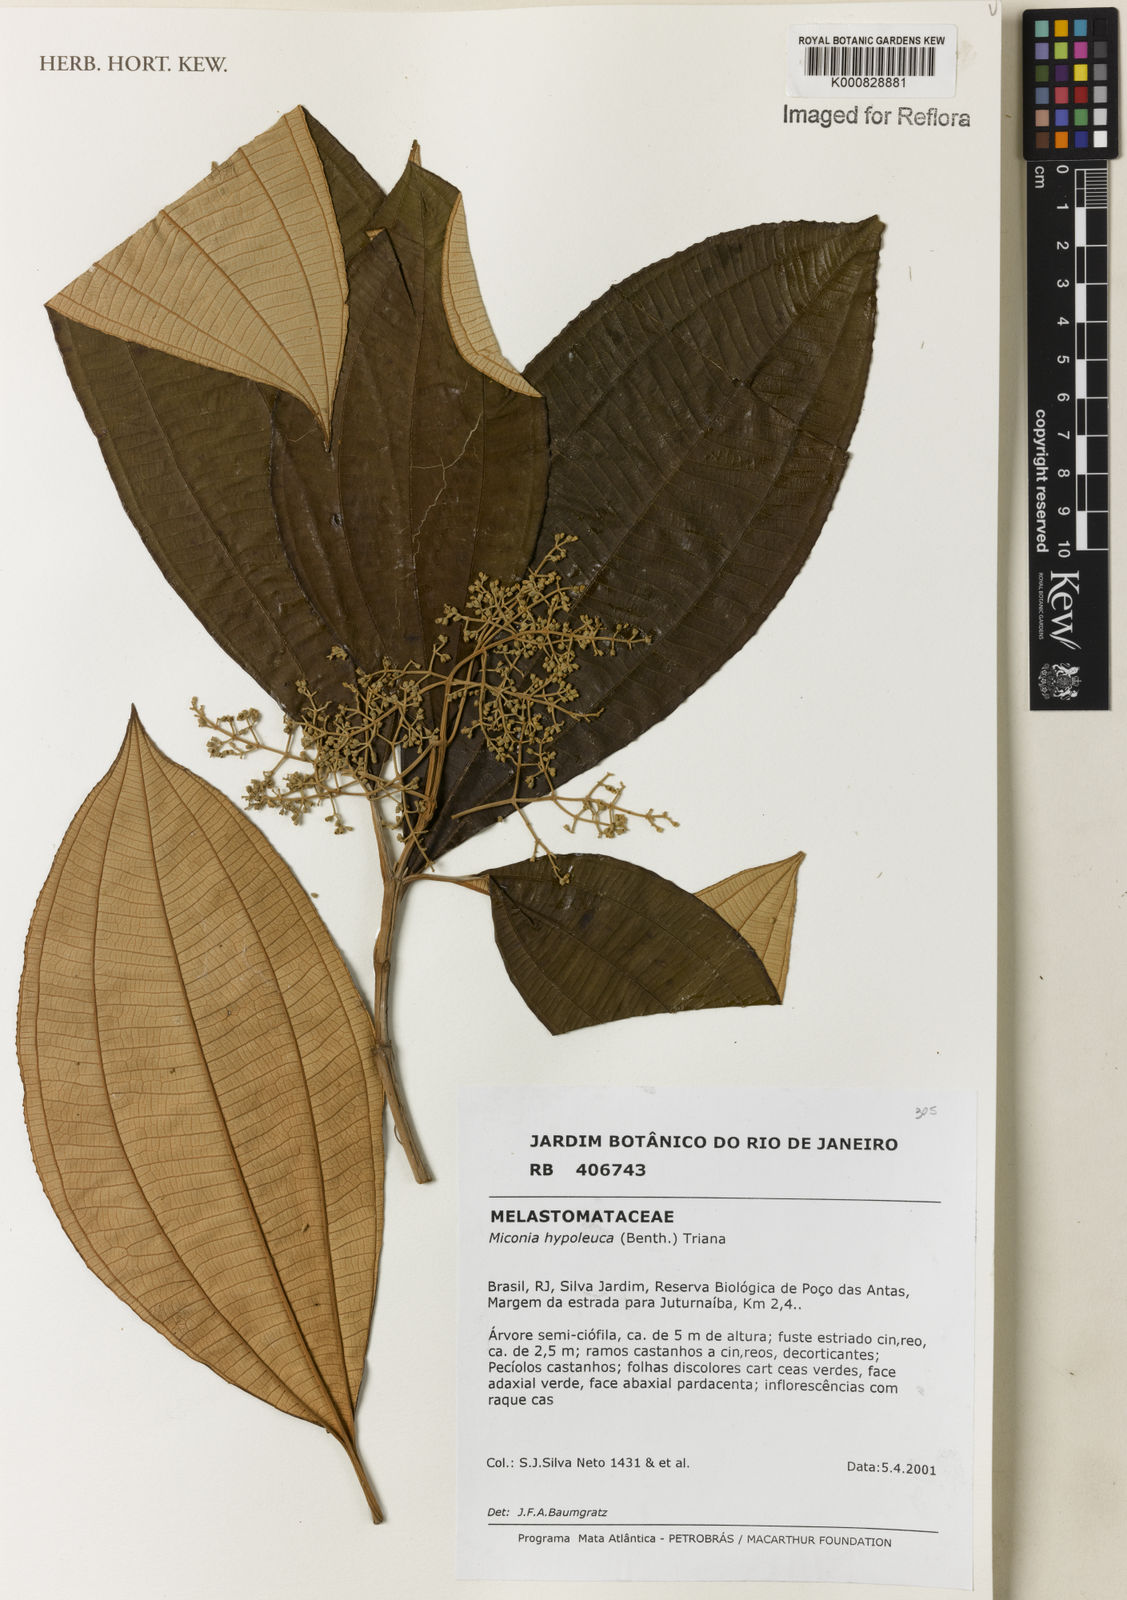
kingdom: Plantae
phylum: Tracheophyta
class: Magnoliopsida
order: Myrtales
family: Melastomataceae
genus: Miconia
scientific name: Miconia hypoleuca
